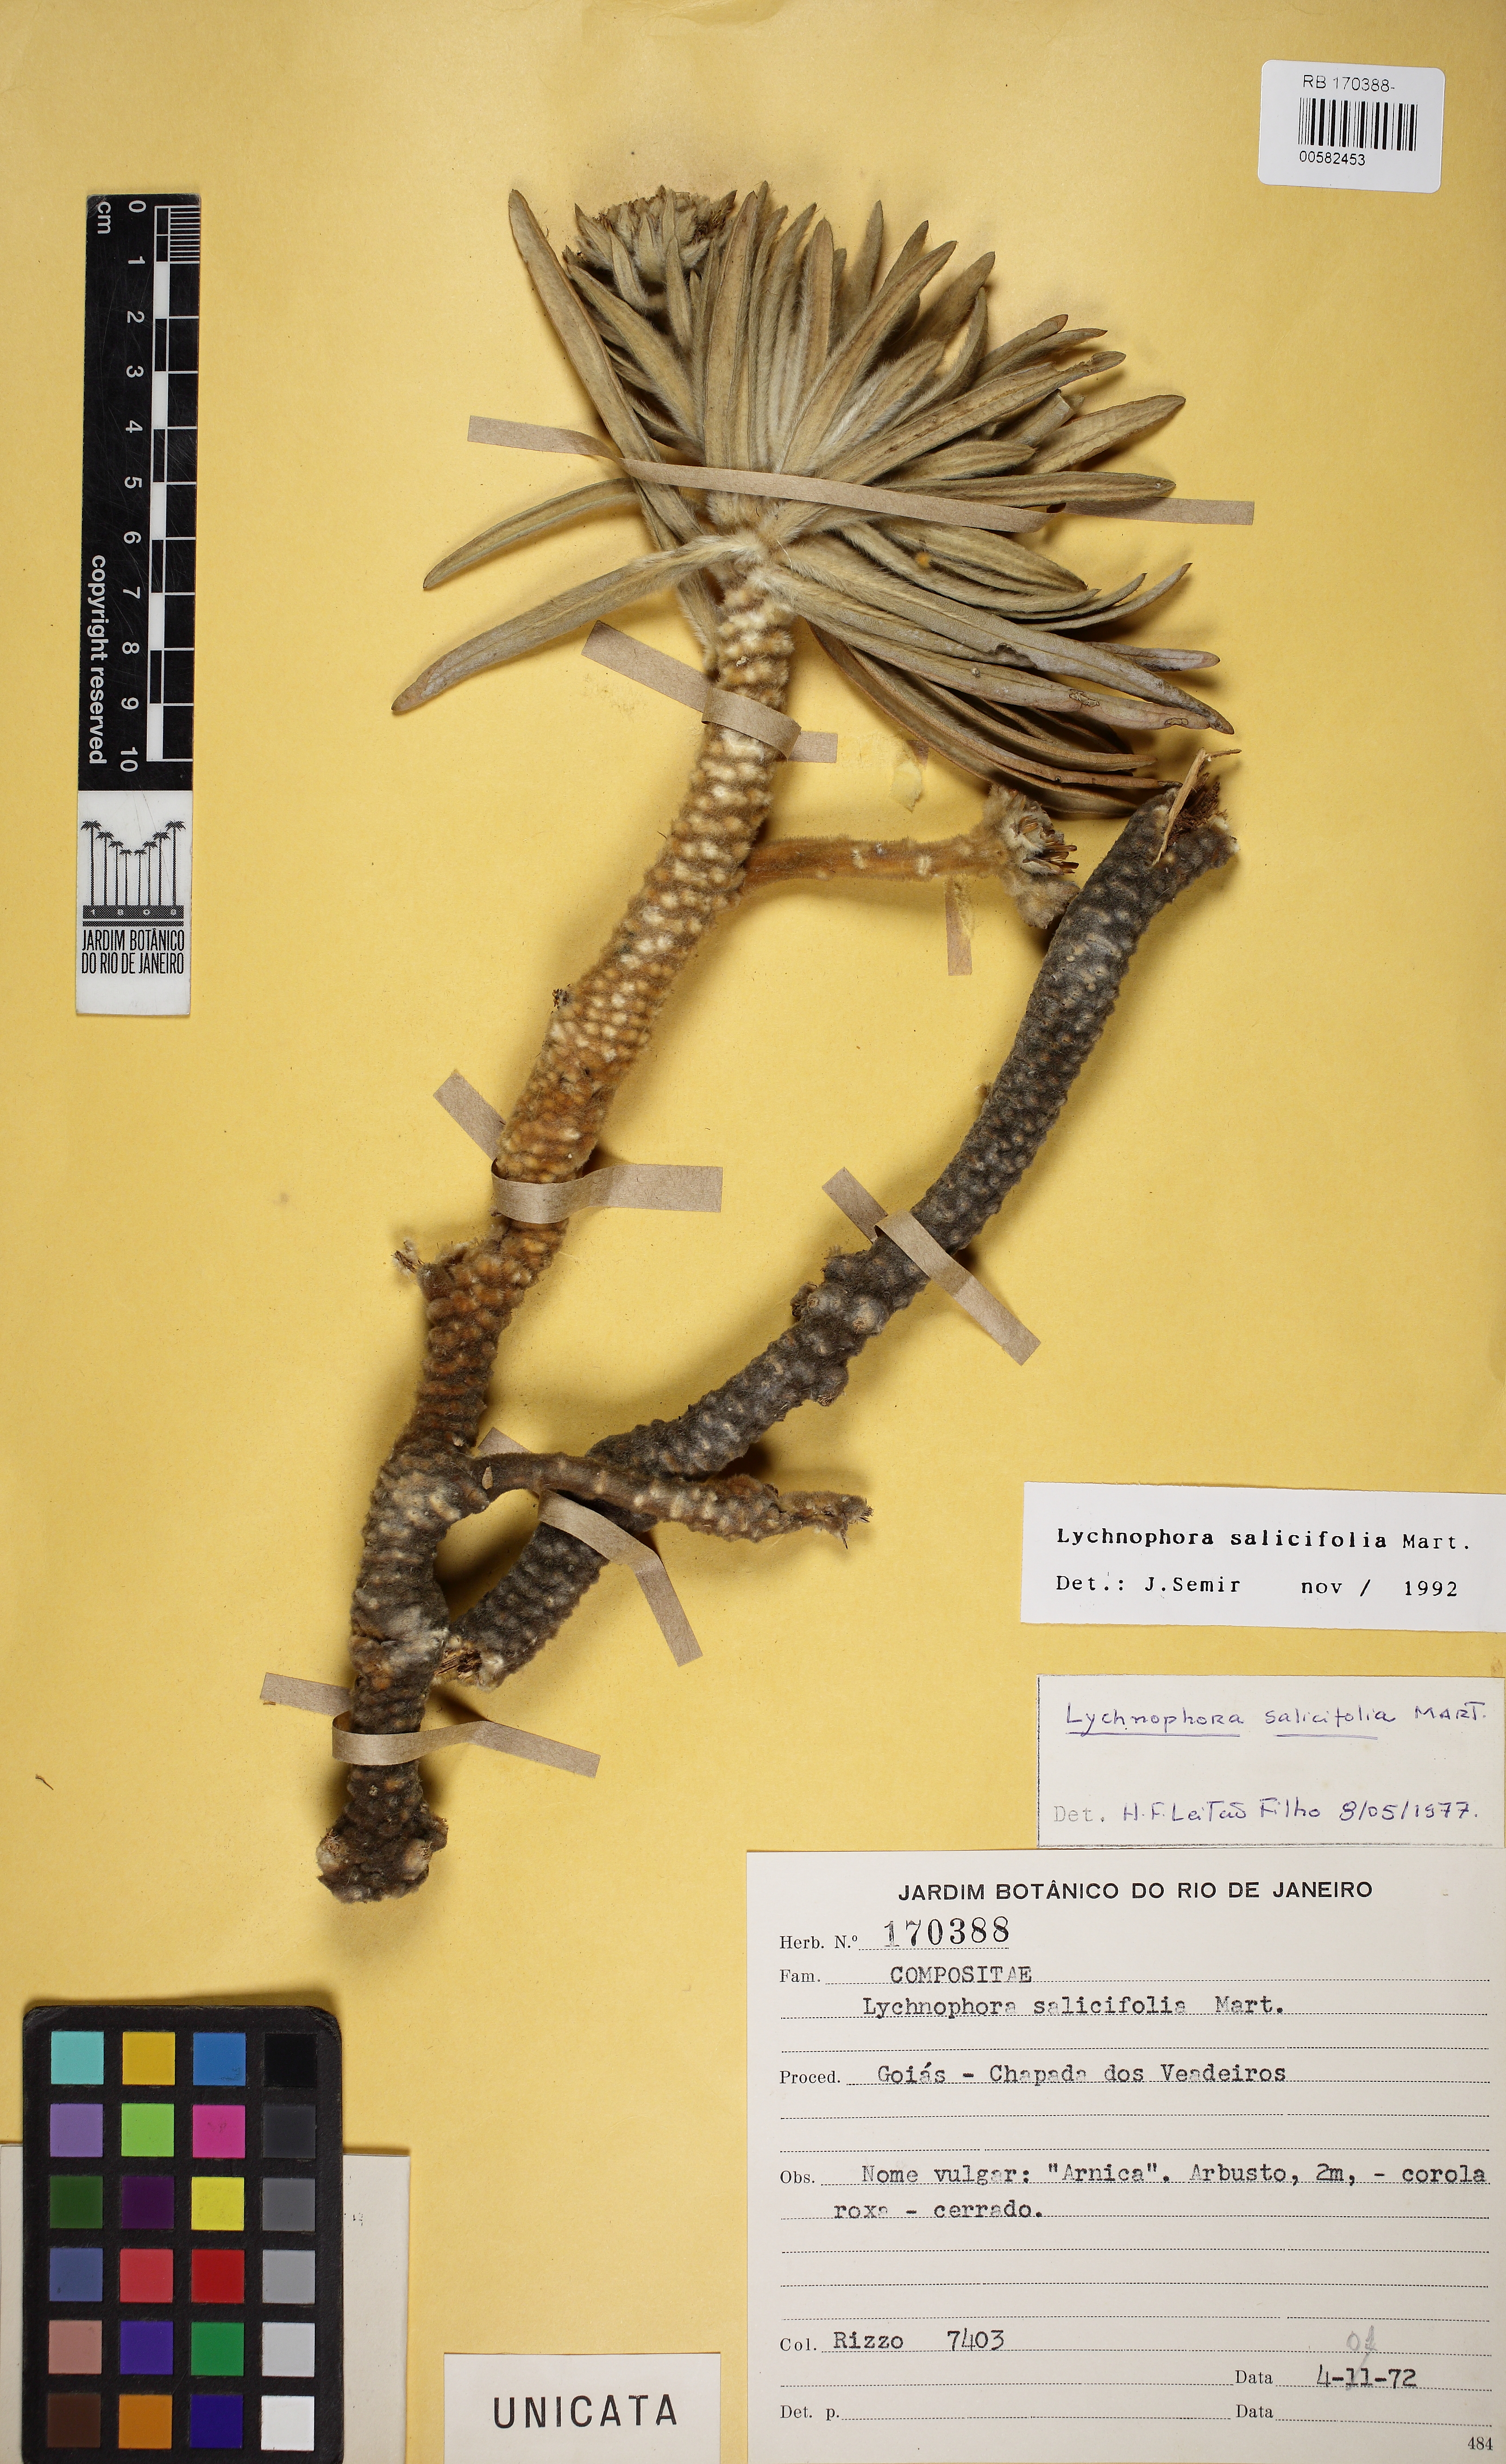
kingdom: Plantae
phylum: Tracheophyta
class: Magnoliopsida
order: Asterales
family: Asteraceae
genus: Lychnophora
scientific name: Lychnophora salicifolia
